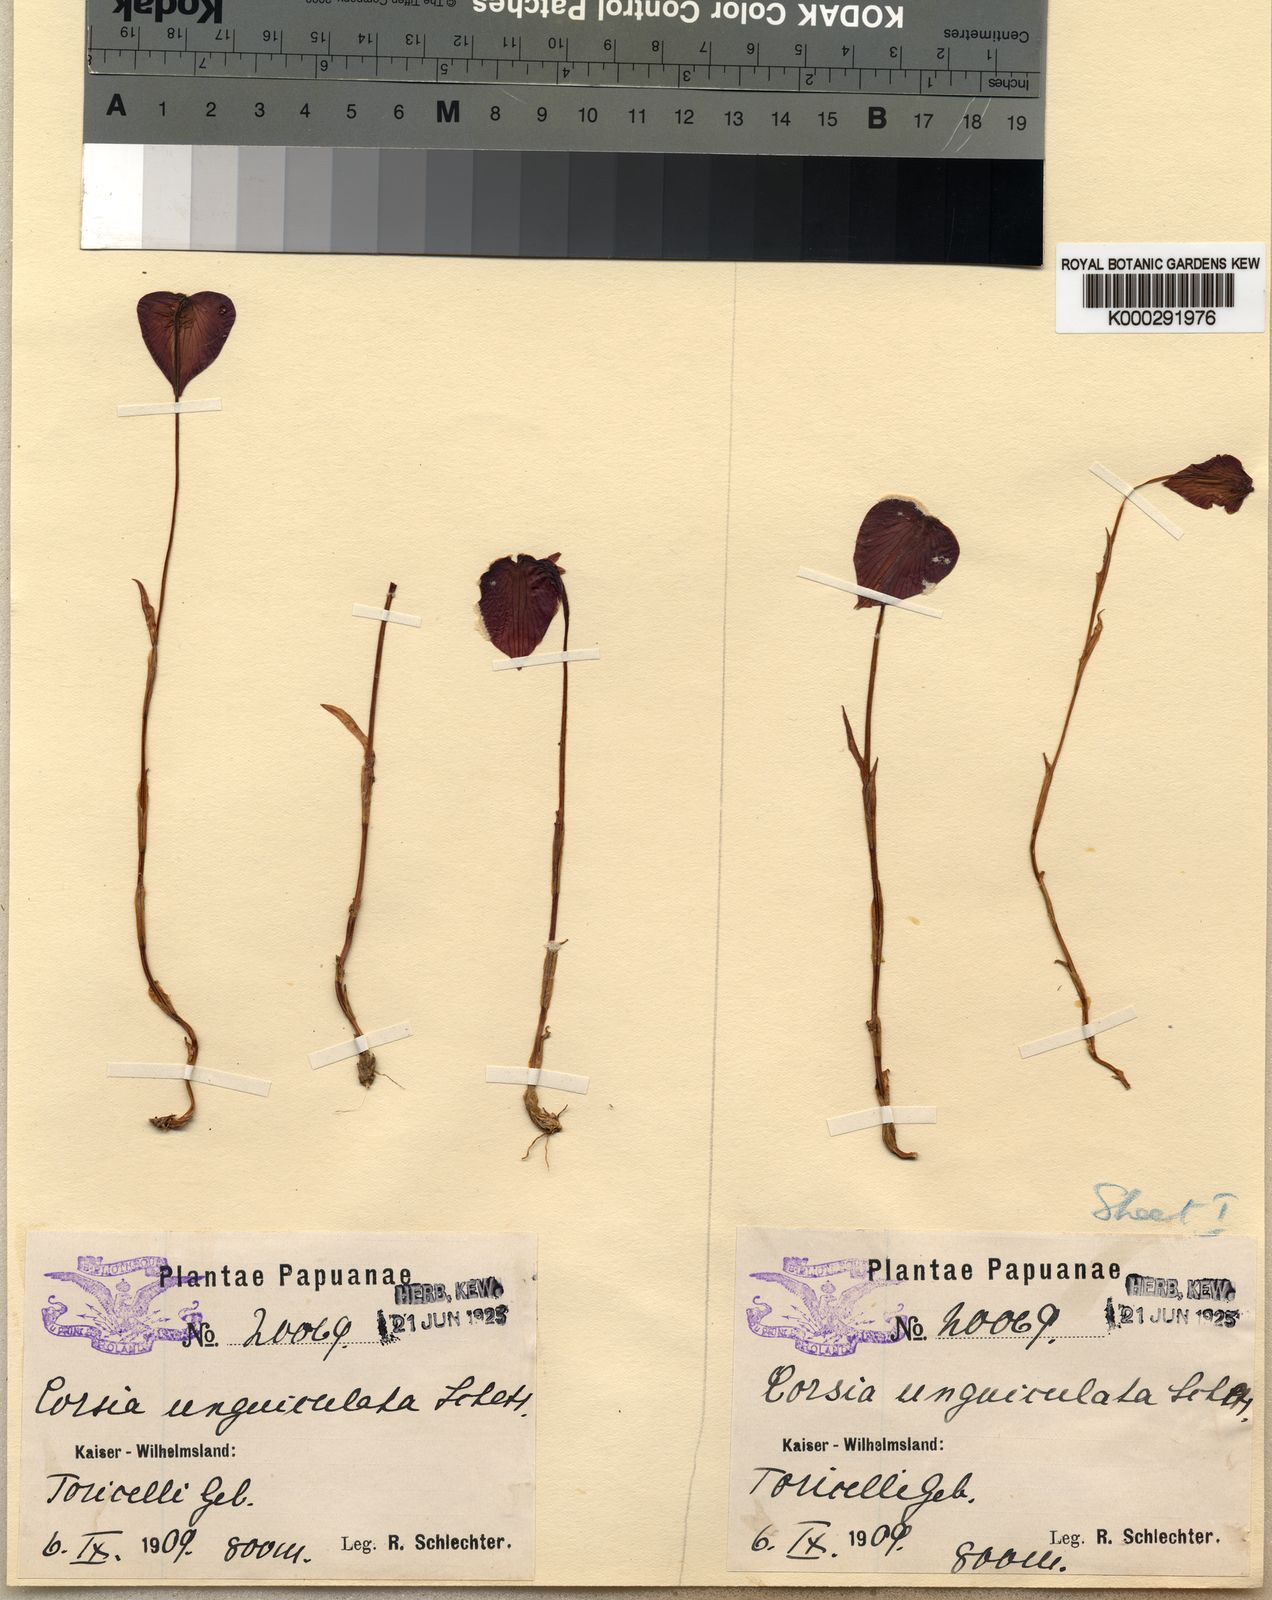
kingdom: Plantae
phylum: Tracheophyta
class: Liliopsida
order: Liliales
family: Corsiaceae
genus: Corsia
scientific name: Corsia unguiculata
